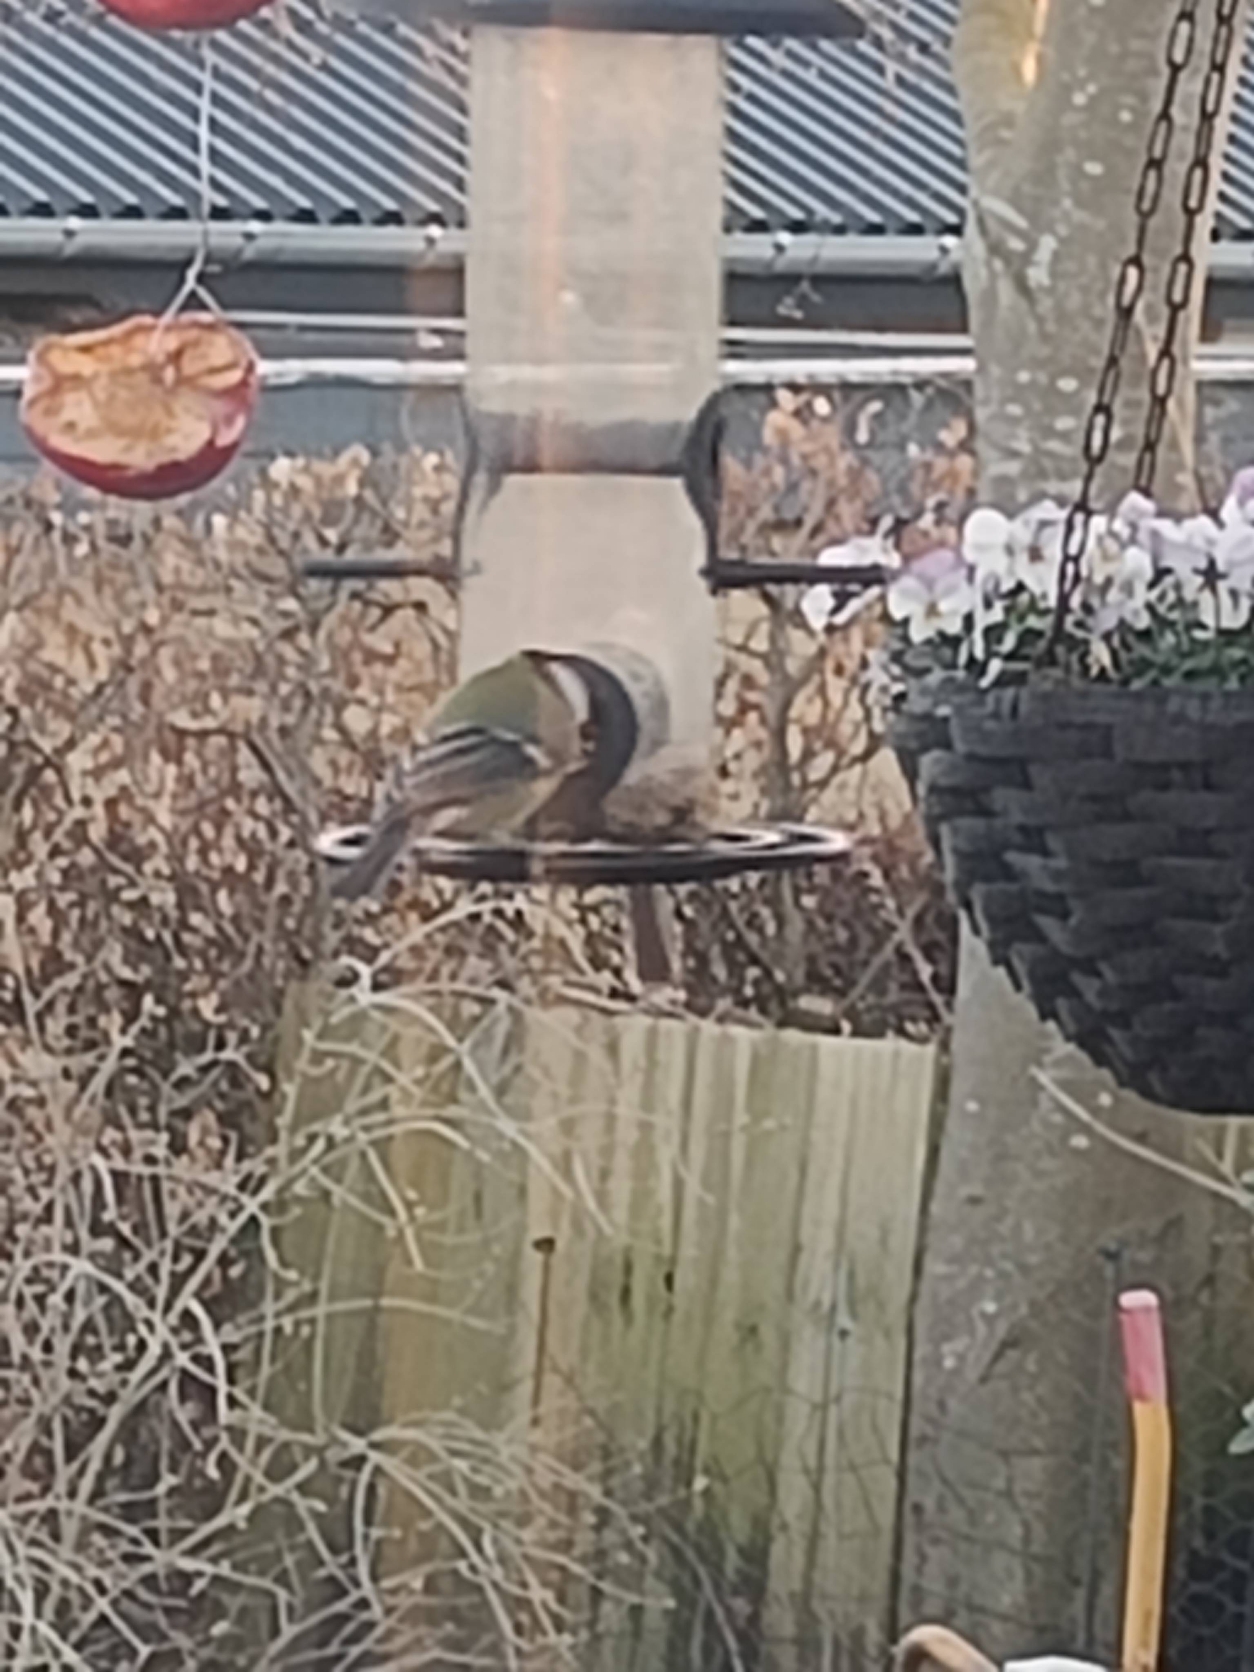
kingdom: Animalia
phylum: Chordata
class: Aves
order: Passeriformes
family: Paridae
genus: Parus
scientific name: Parus major
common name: Musvit
